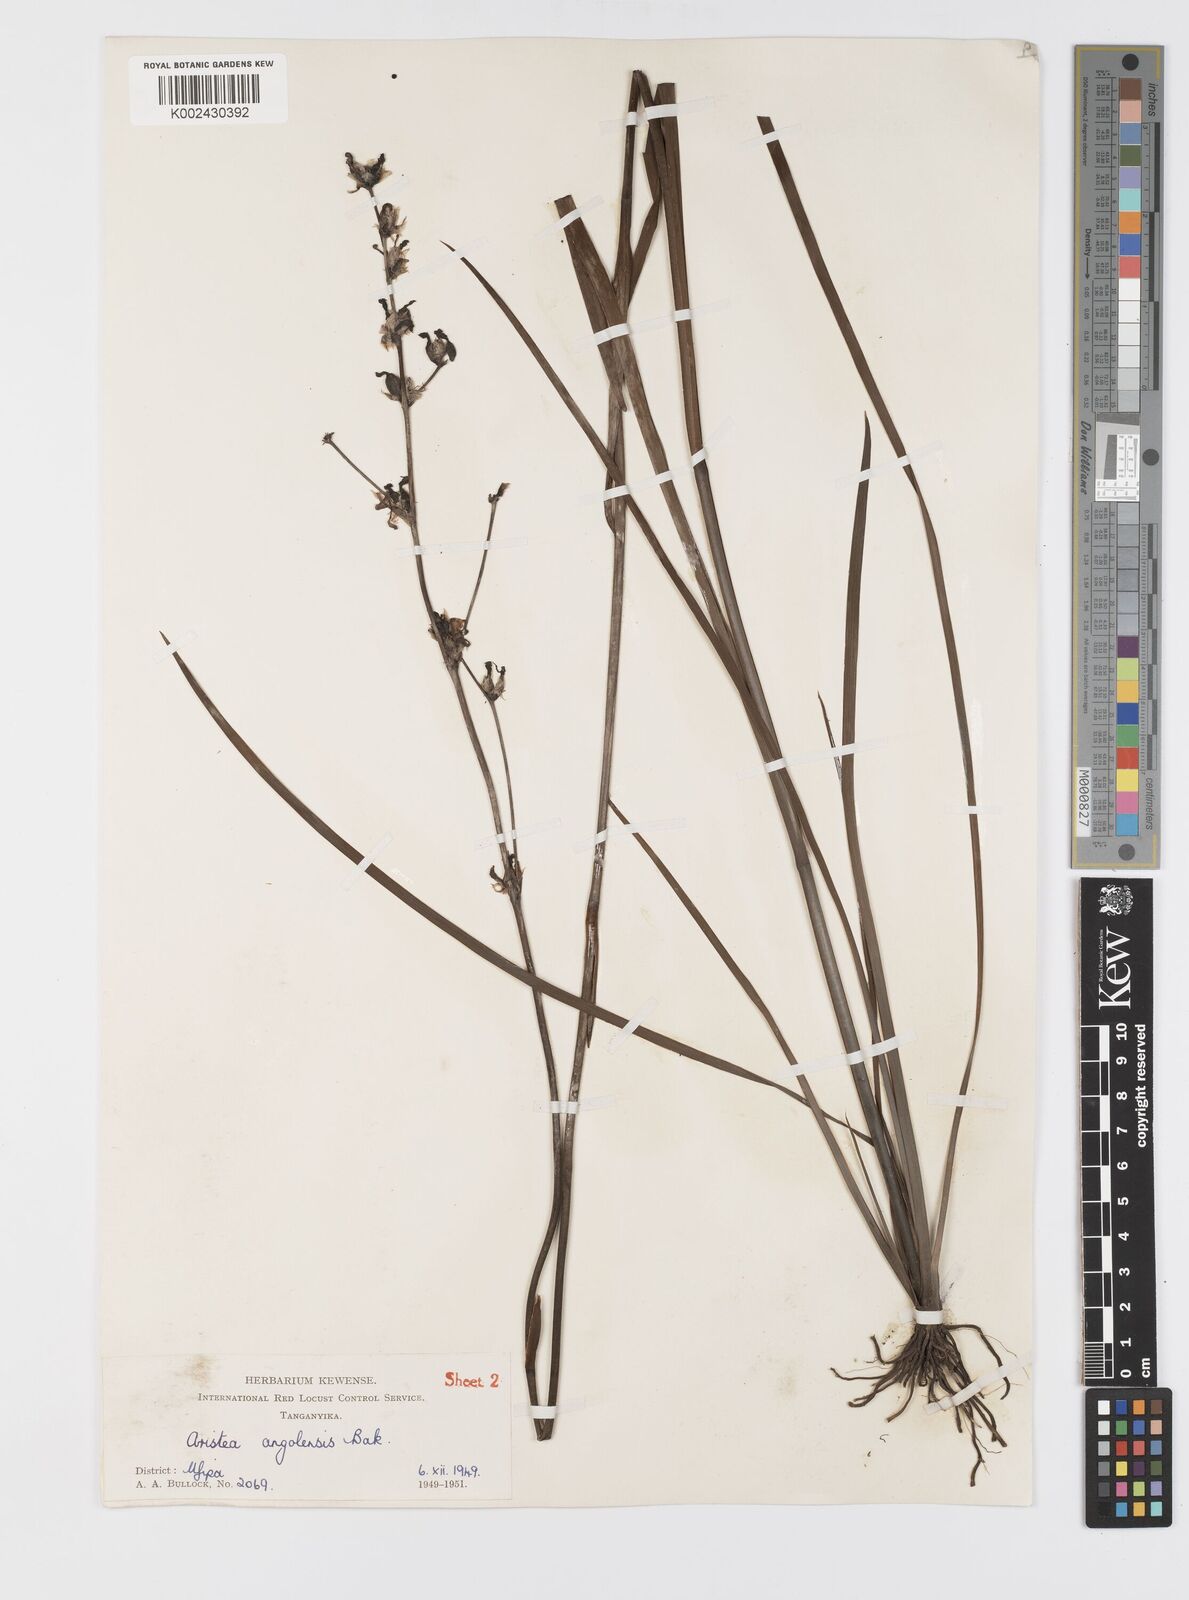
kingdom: Plantae
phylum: Tracheophyta
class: Liliopsida
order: Asparagales
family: Iridaceae
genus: Aristea
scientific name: Aristea angolensis
